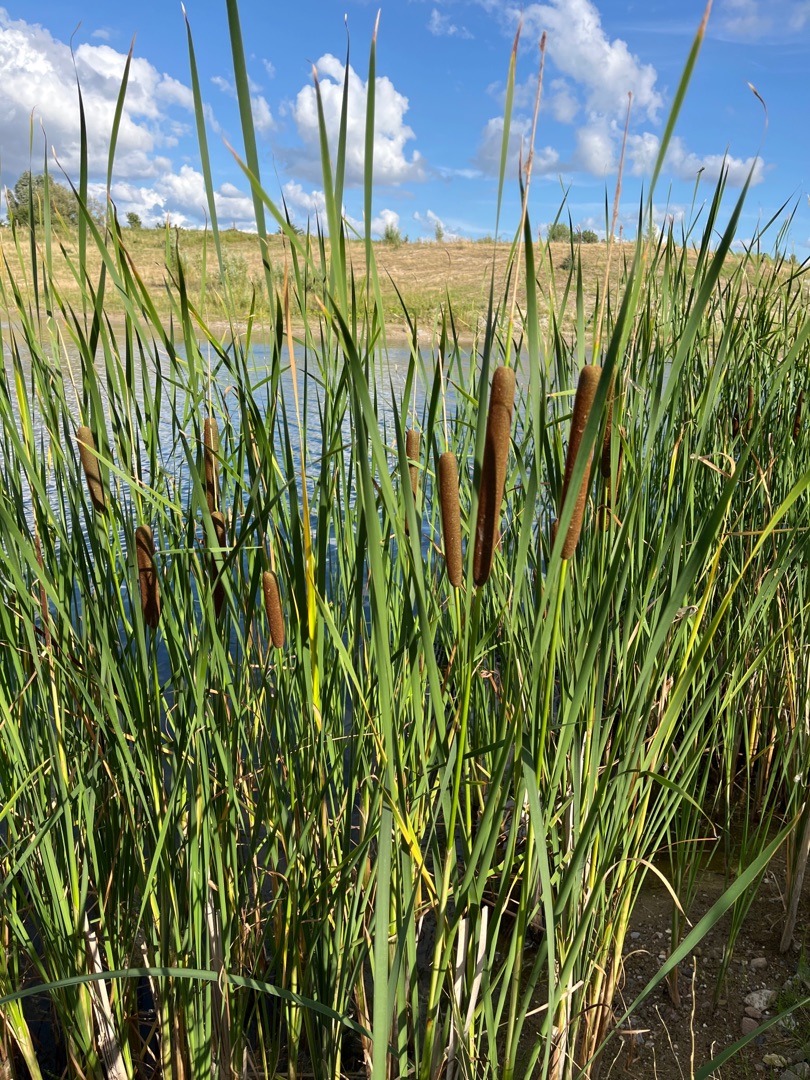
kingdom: Plantae
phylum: Tracheophyta
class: Liliopsida
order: Poales
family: Typhaceae
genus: Typha
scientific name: Typha angustifolia
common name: Smalbladet dunhammer
